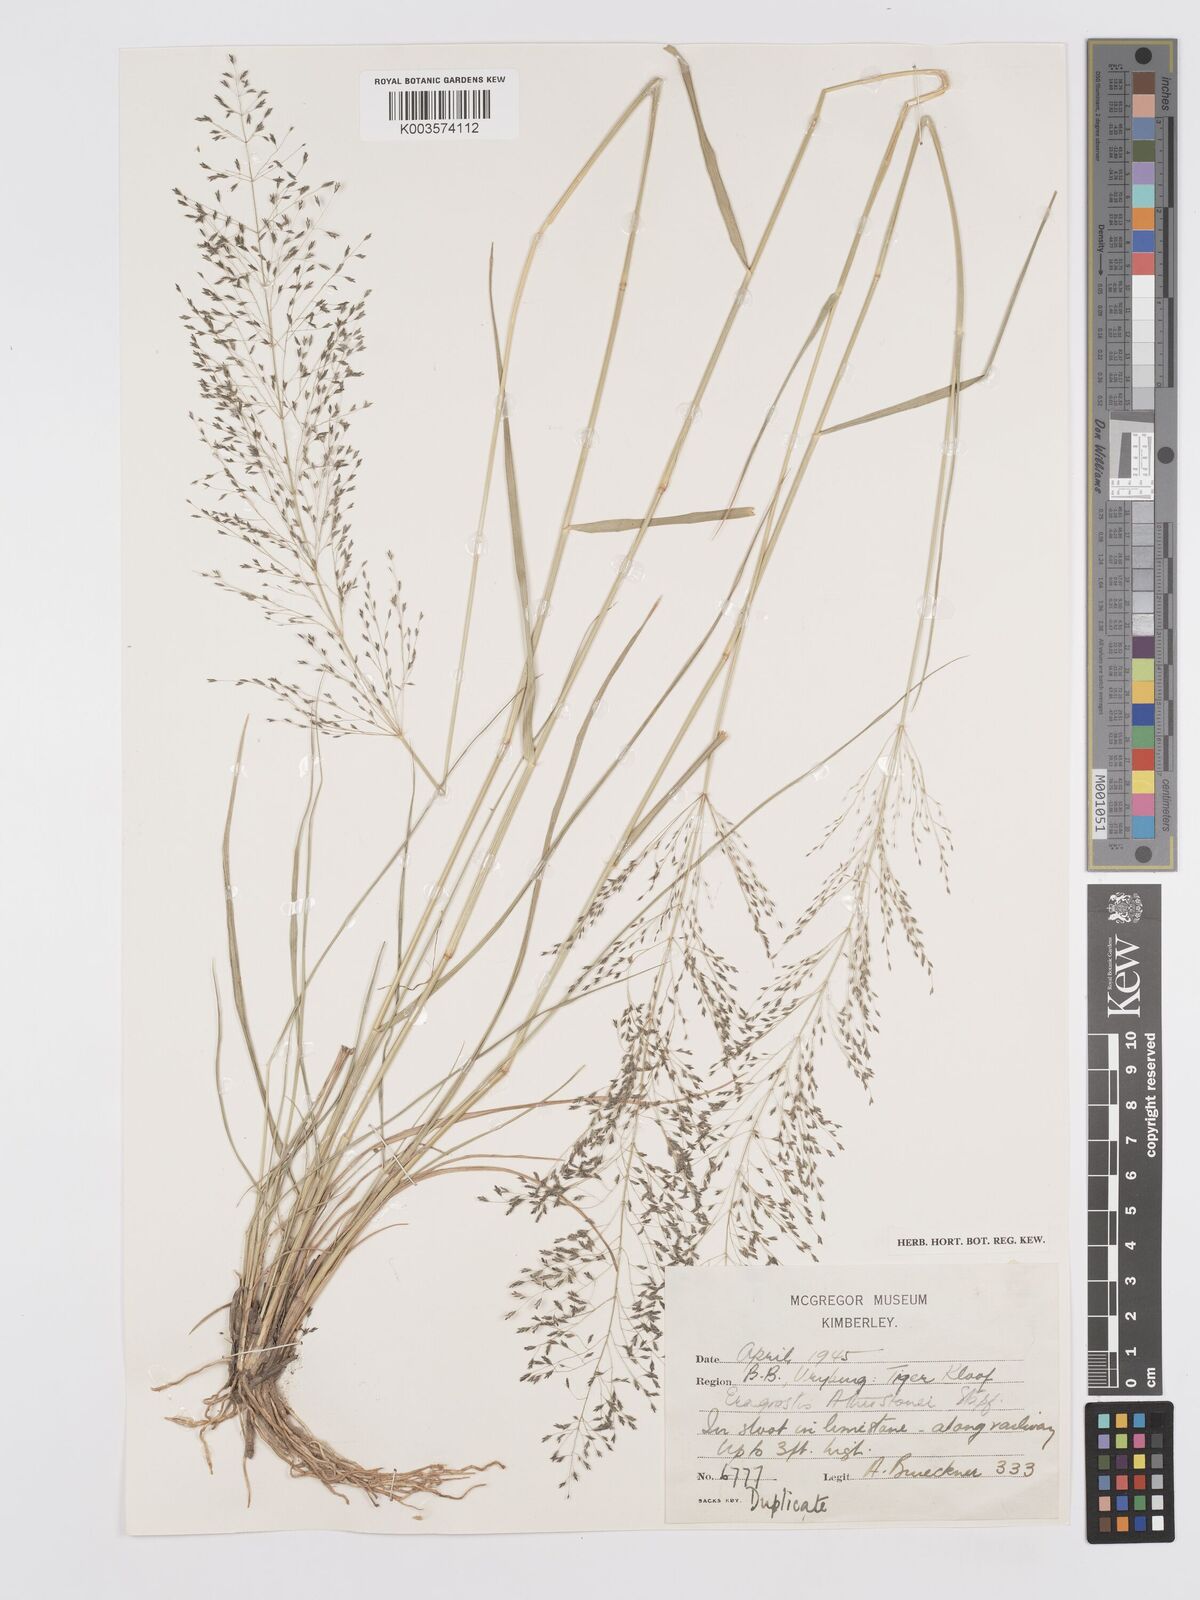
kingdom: Plantae
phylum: Tracheophyta
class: Liliopsida
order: Poales
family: Poaceae
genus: Eragrostis
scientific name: Eragrostis cylindriflora
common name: Cylinderflower lovegrass
